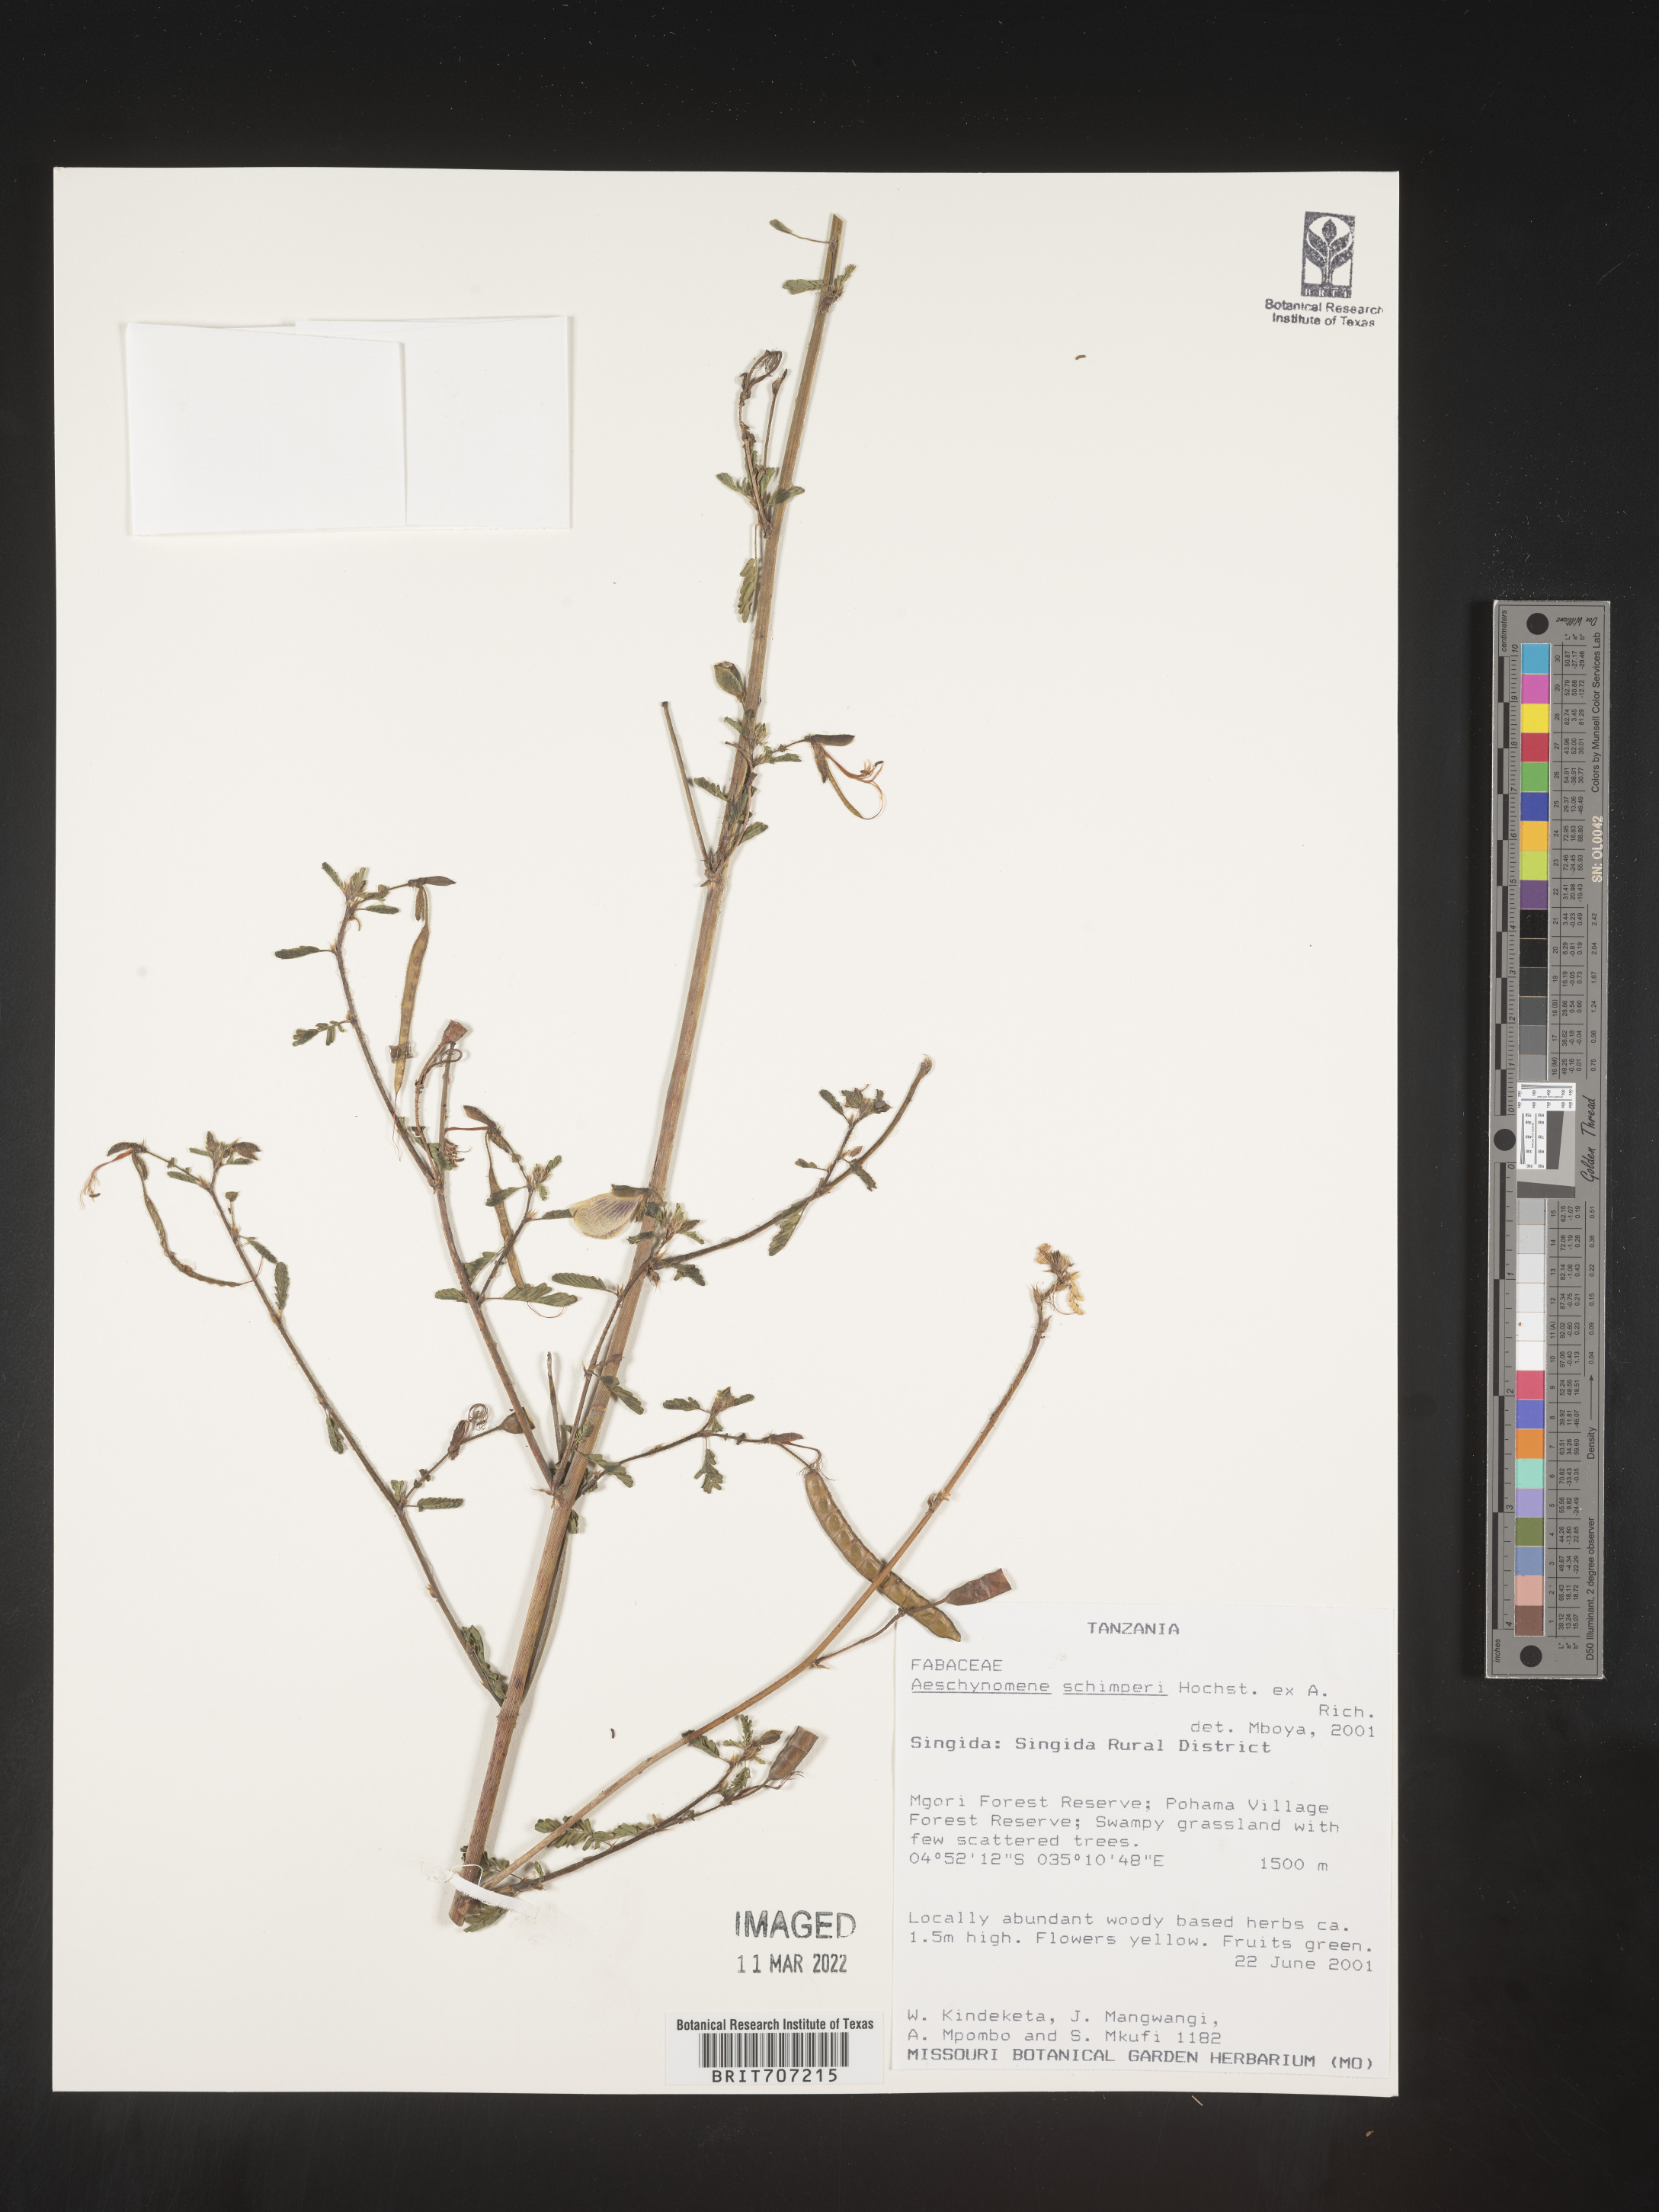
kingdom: Plantae
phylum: Tracheophyta
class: Magnoliopsida
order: Fabales
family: Fabaceae
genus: Aeschynomene
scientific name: Aeschynomene
